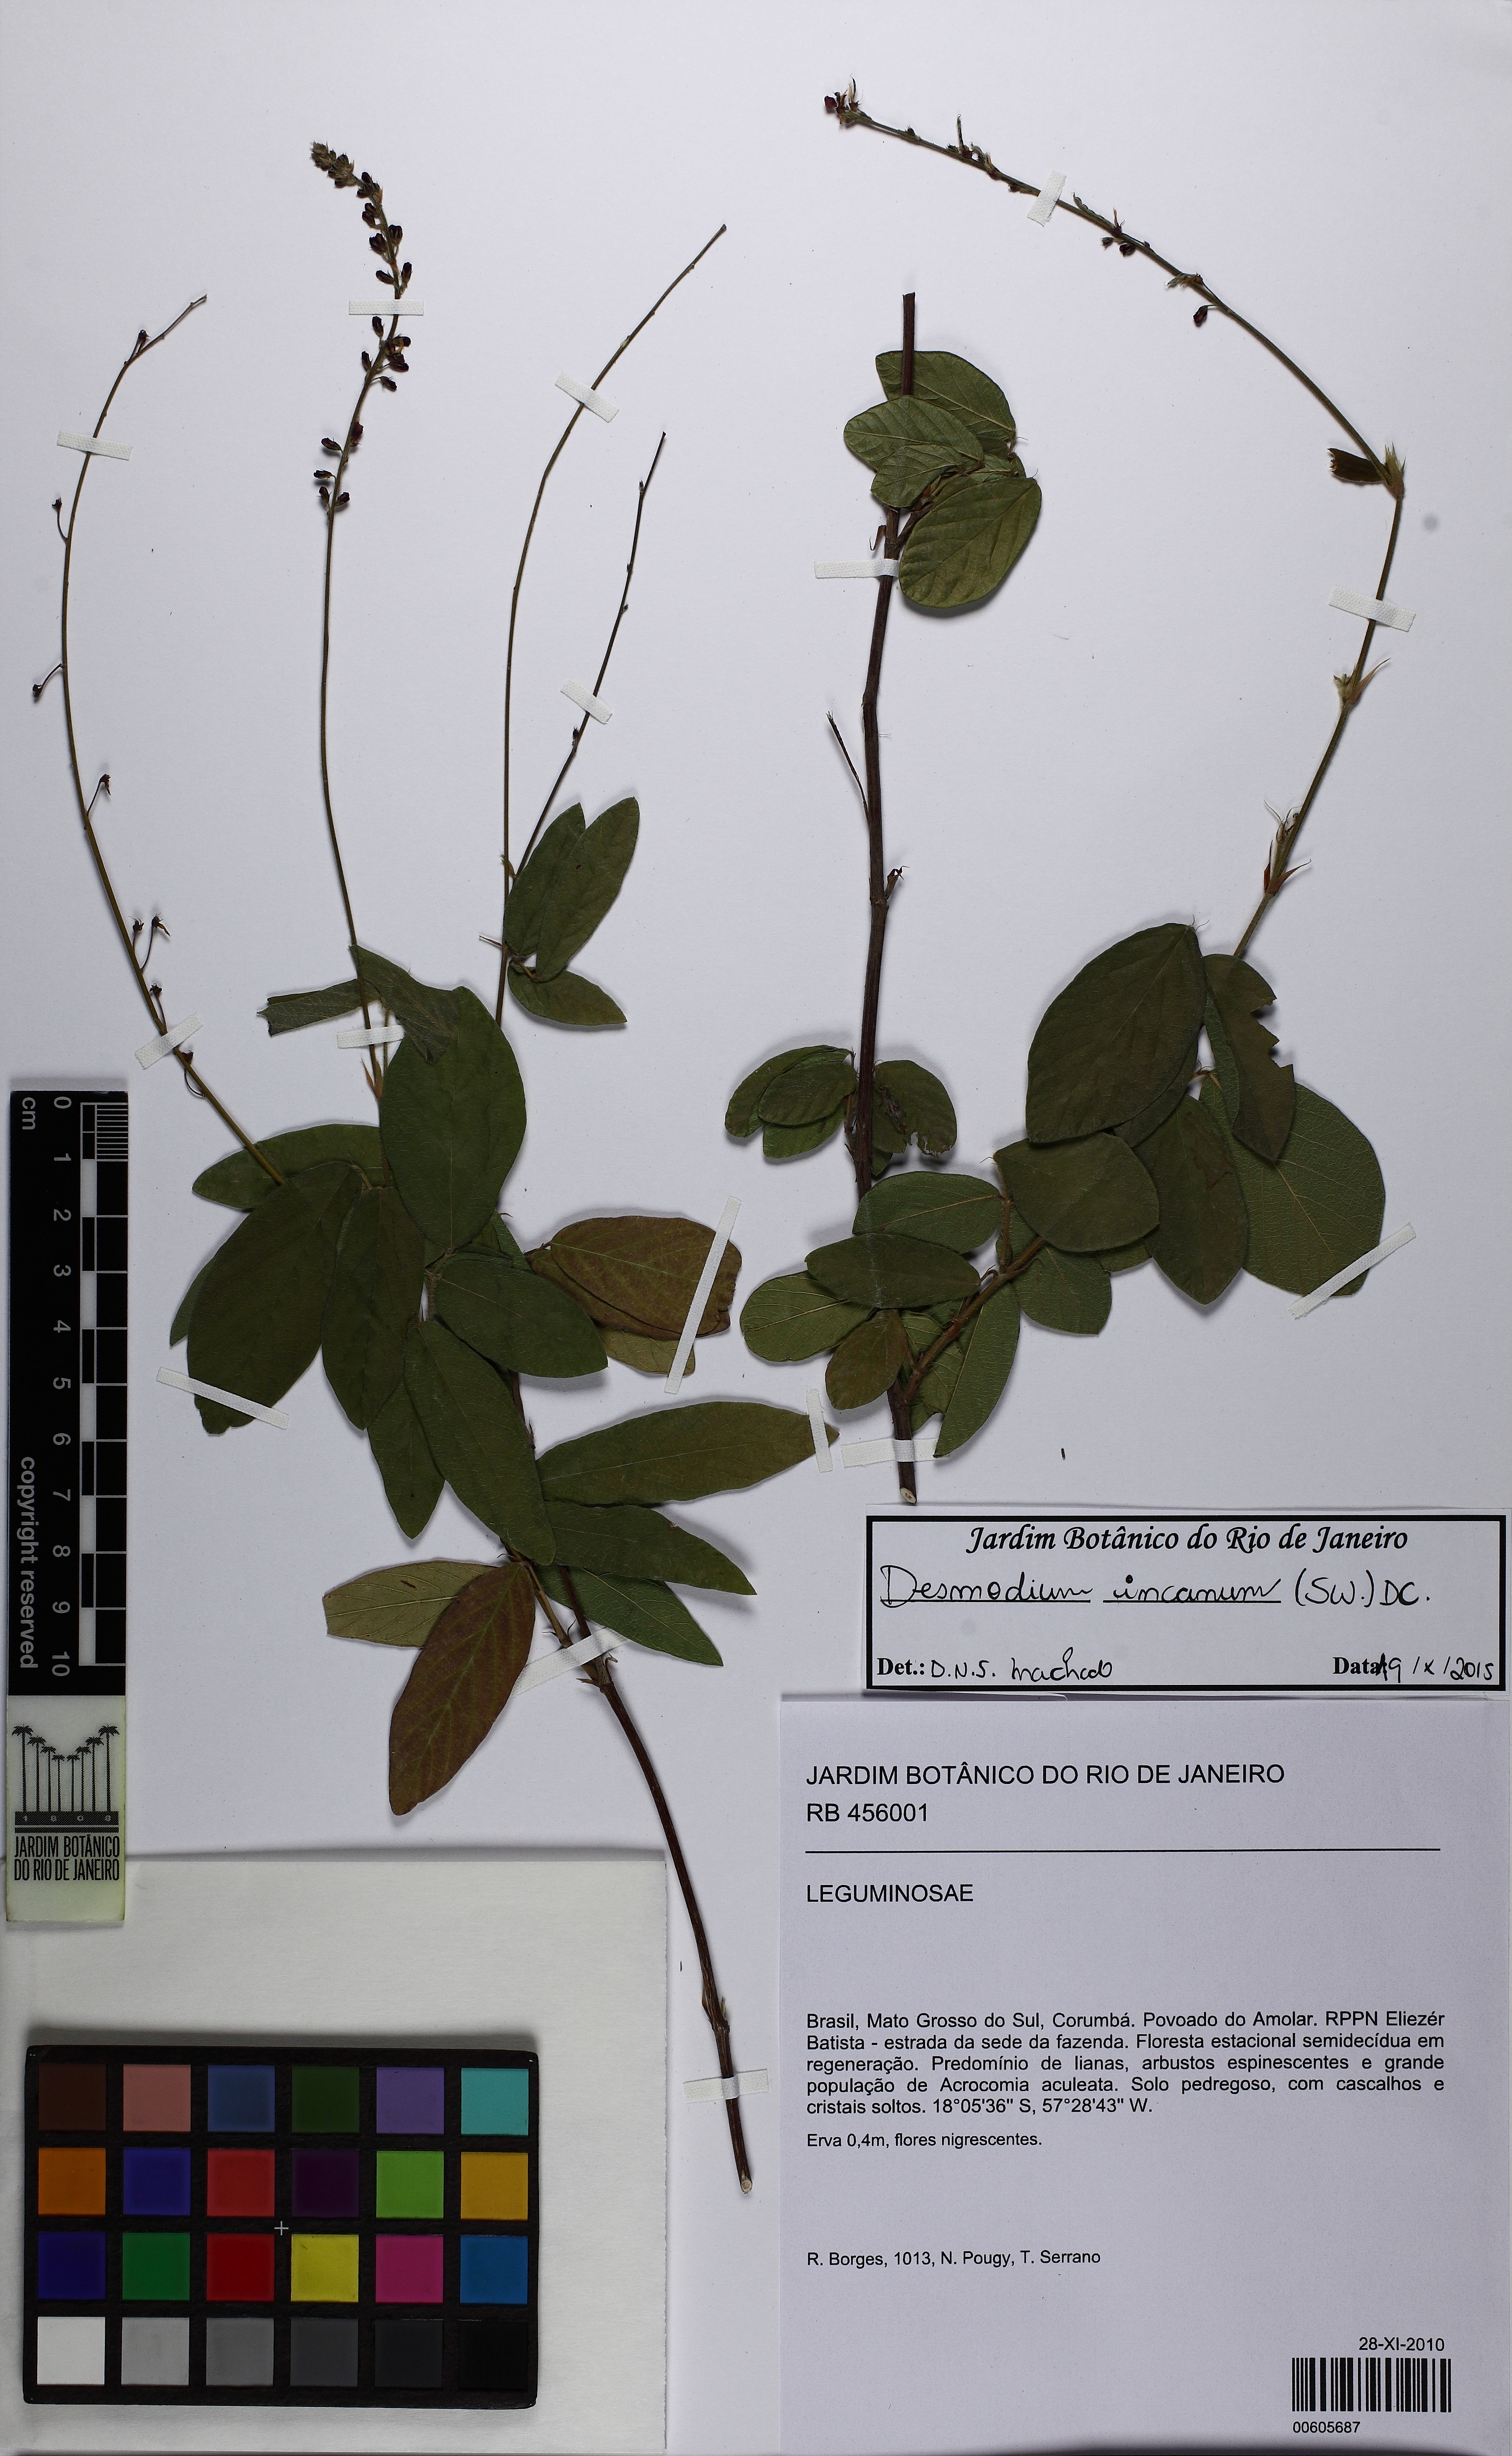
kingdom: Plantae
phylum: Tracheophyta
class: Magnoliopsida
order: Fabales
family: Fabaceae
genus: Desmodium
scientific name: Desmodium incanum
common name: Tickclover
